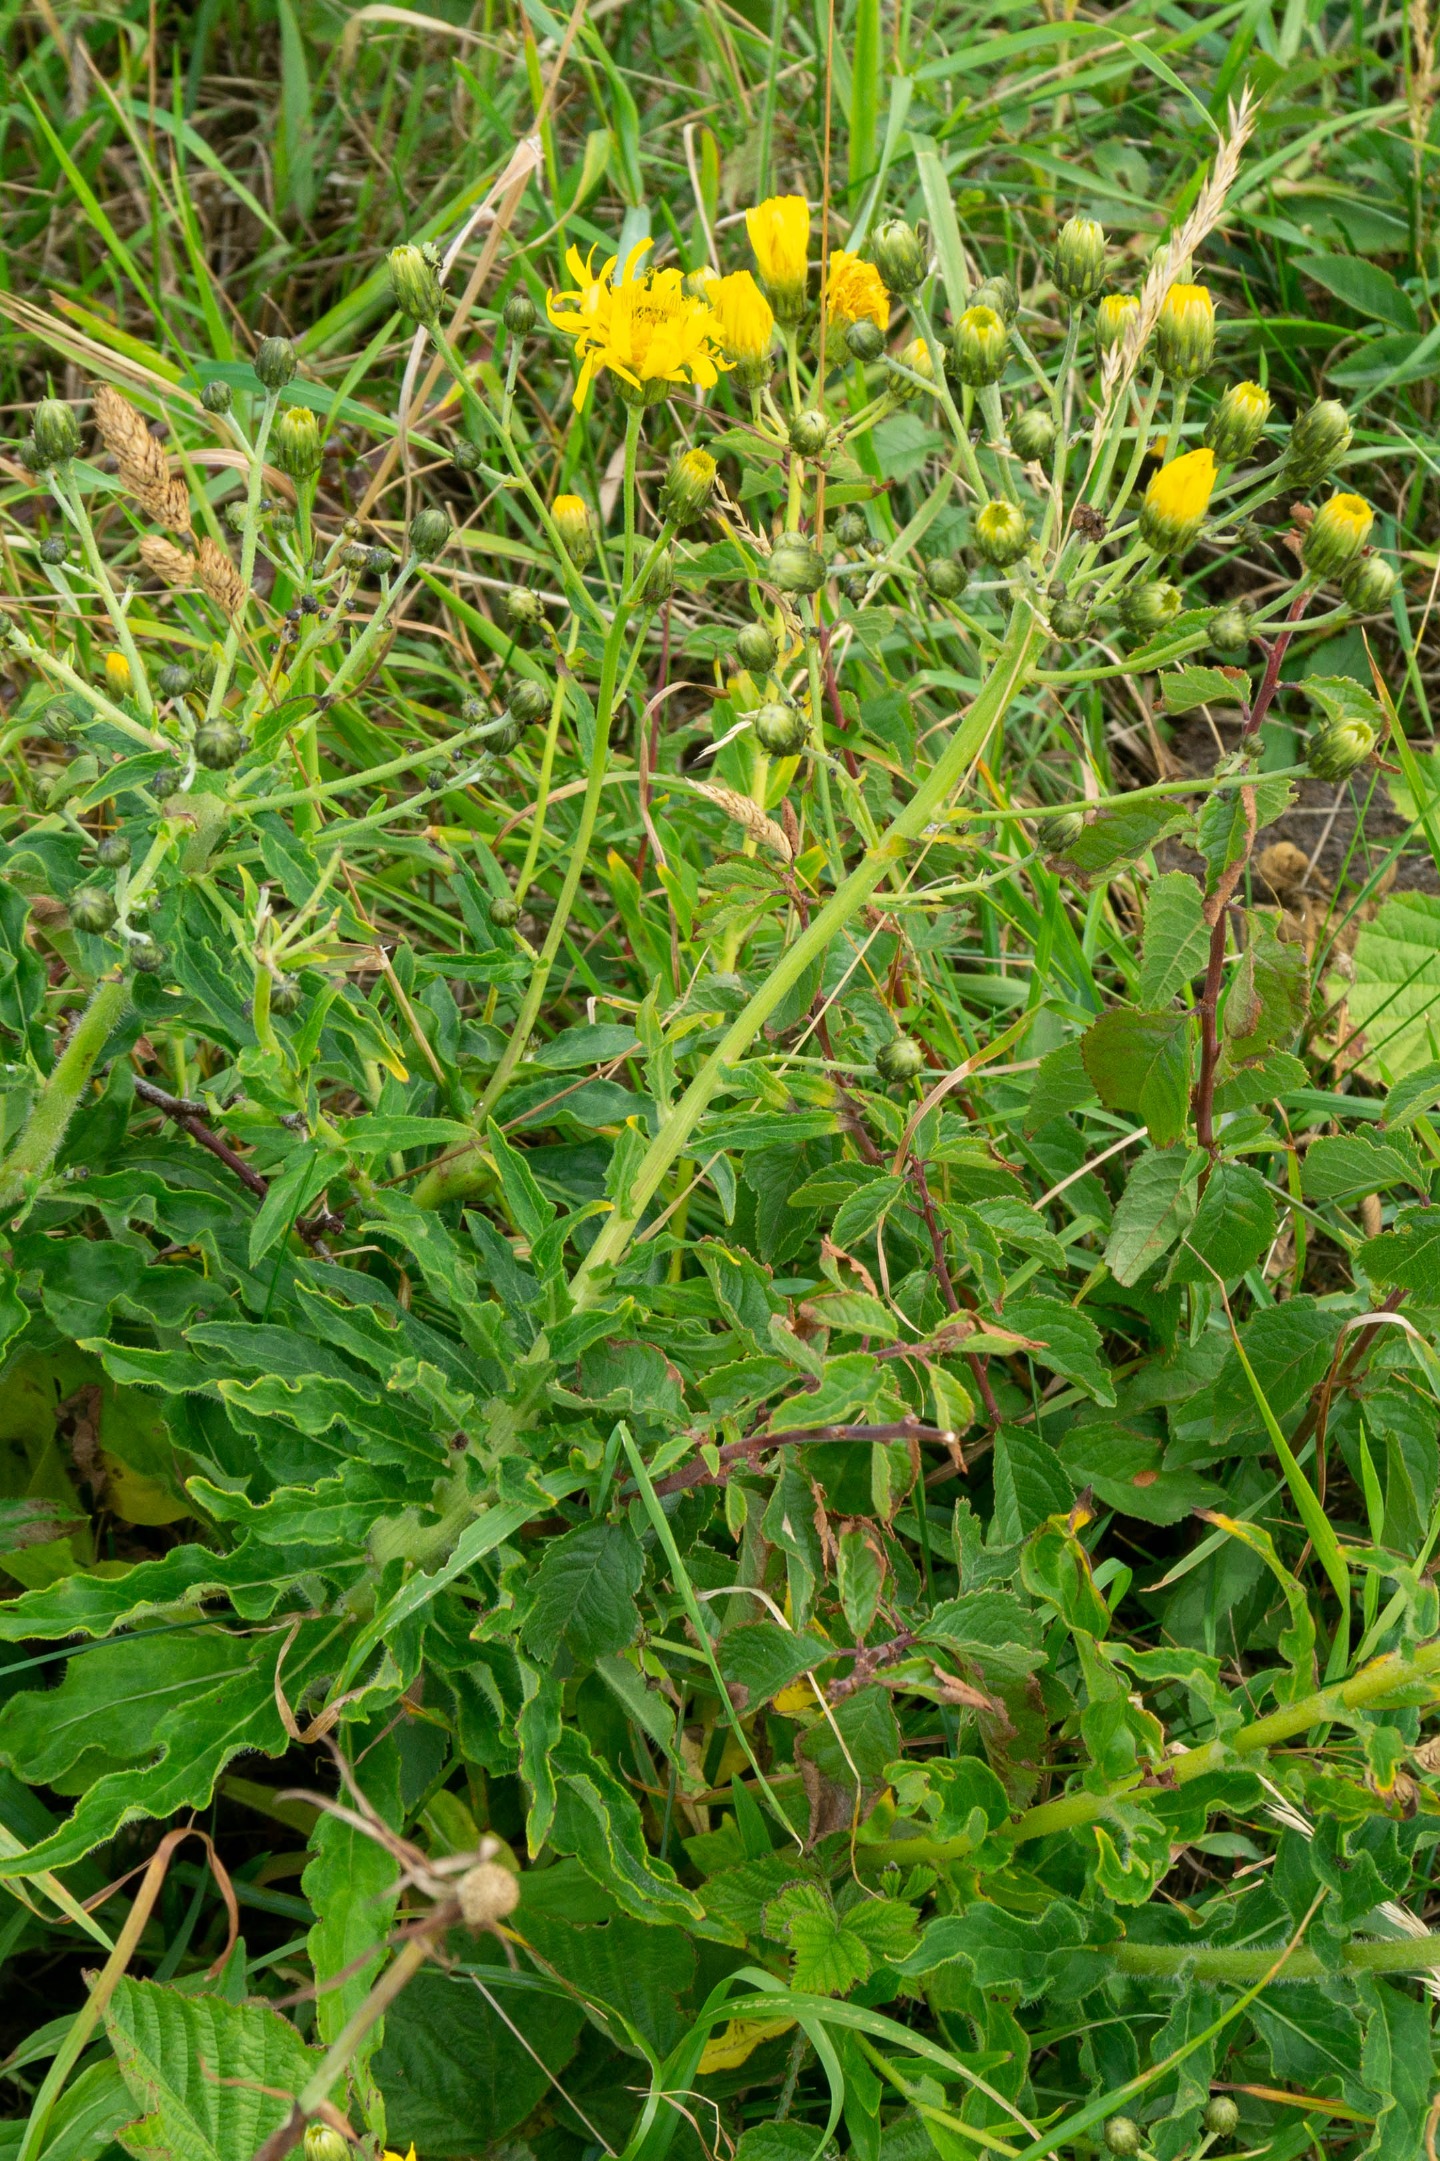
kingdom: Plantae
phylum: Tracheophyta
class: Magnoliopsida
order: Asterales
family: Asteraceae
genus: Hieracium
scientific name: Hieracium umbellatum
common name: Smalbladet høgeurt
